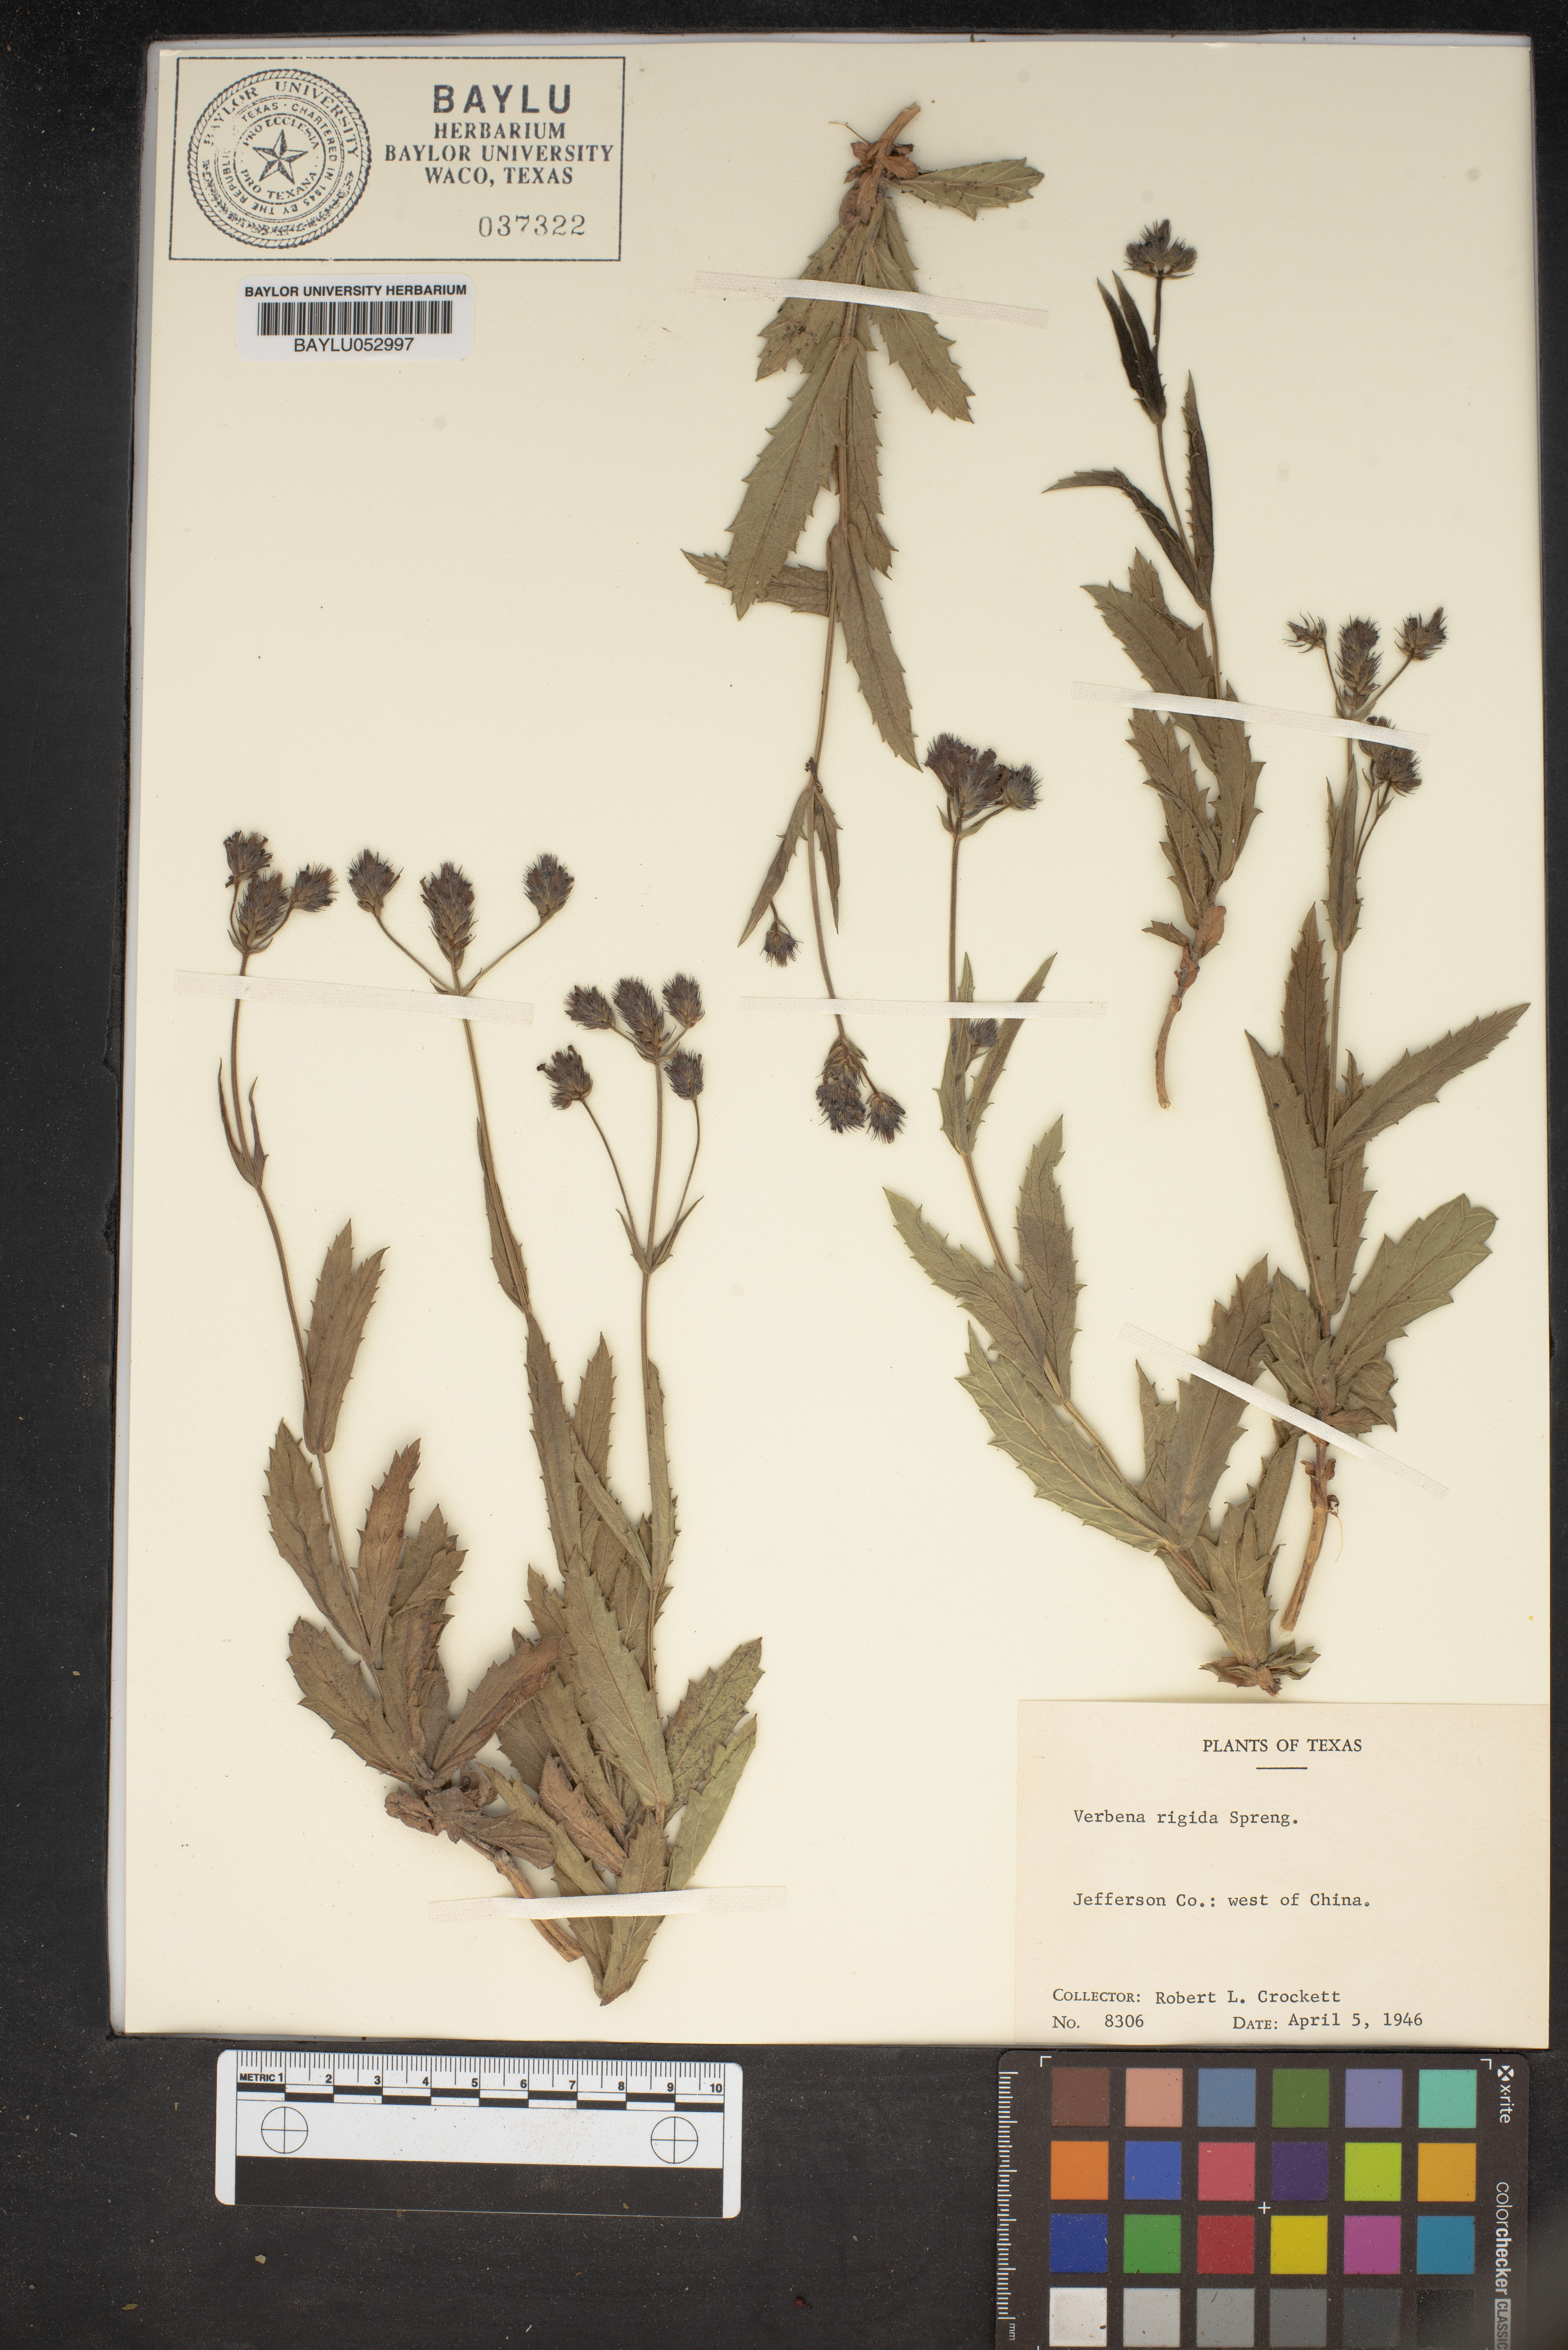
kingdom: Plantae
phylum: Tracheophyta
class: Magnoliopsida
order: Lamiales
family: Verbenaceae
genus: Verbena
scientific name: Verbena rigida
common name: Slender vervain
